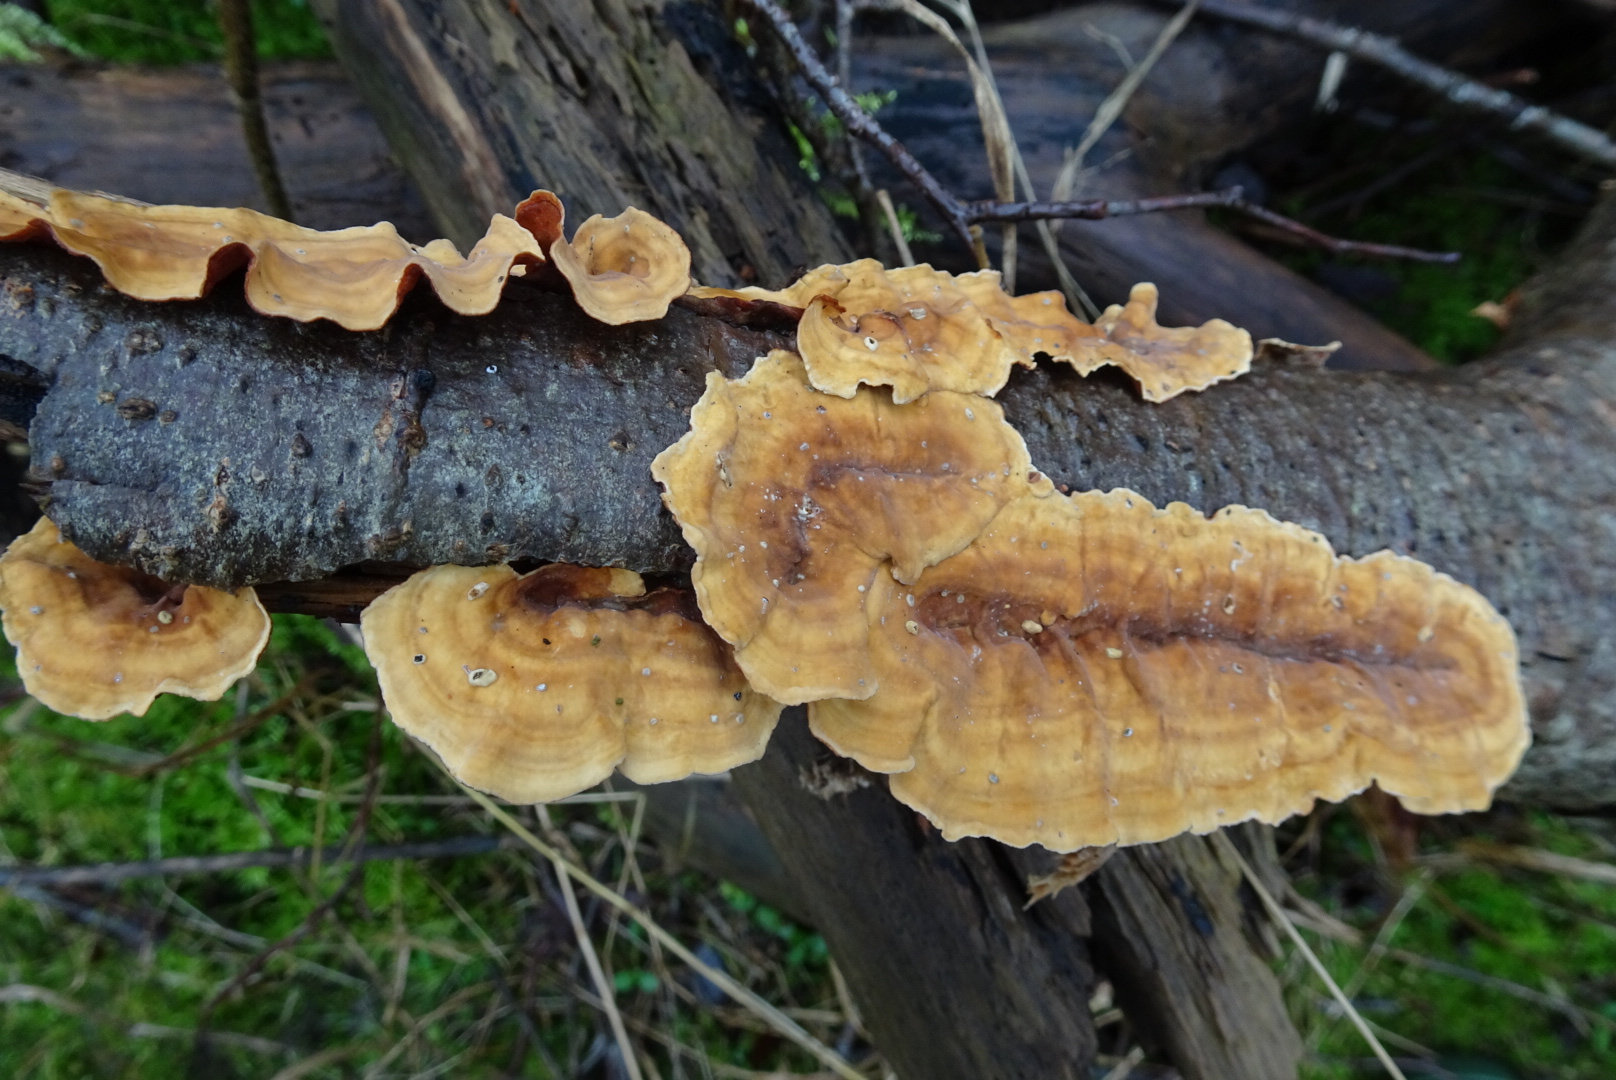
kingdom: Fungi
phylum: Basidiomycota
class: Agaricomycetes
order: Russulales
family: Stereaceae
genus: Stereum
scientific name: Stereum hirsutum
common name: håret lædersvamp
